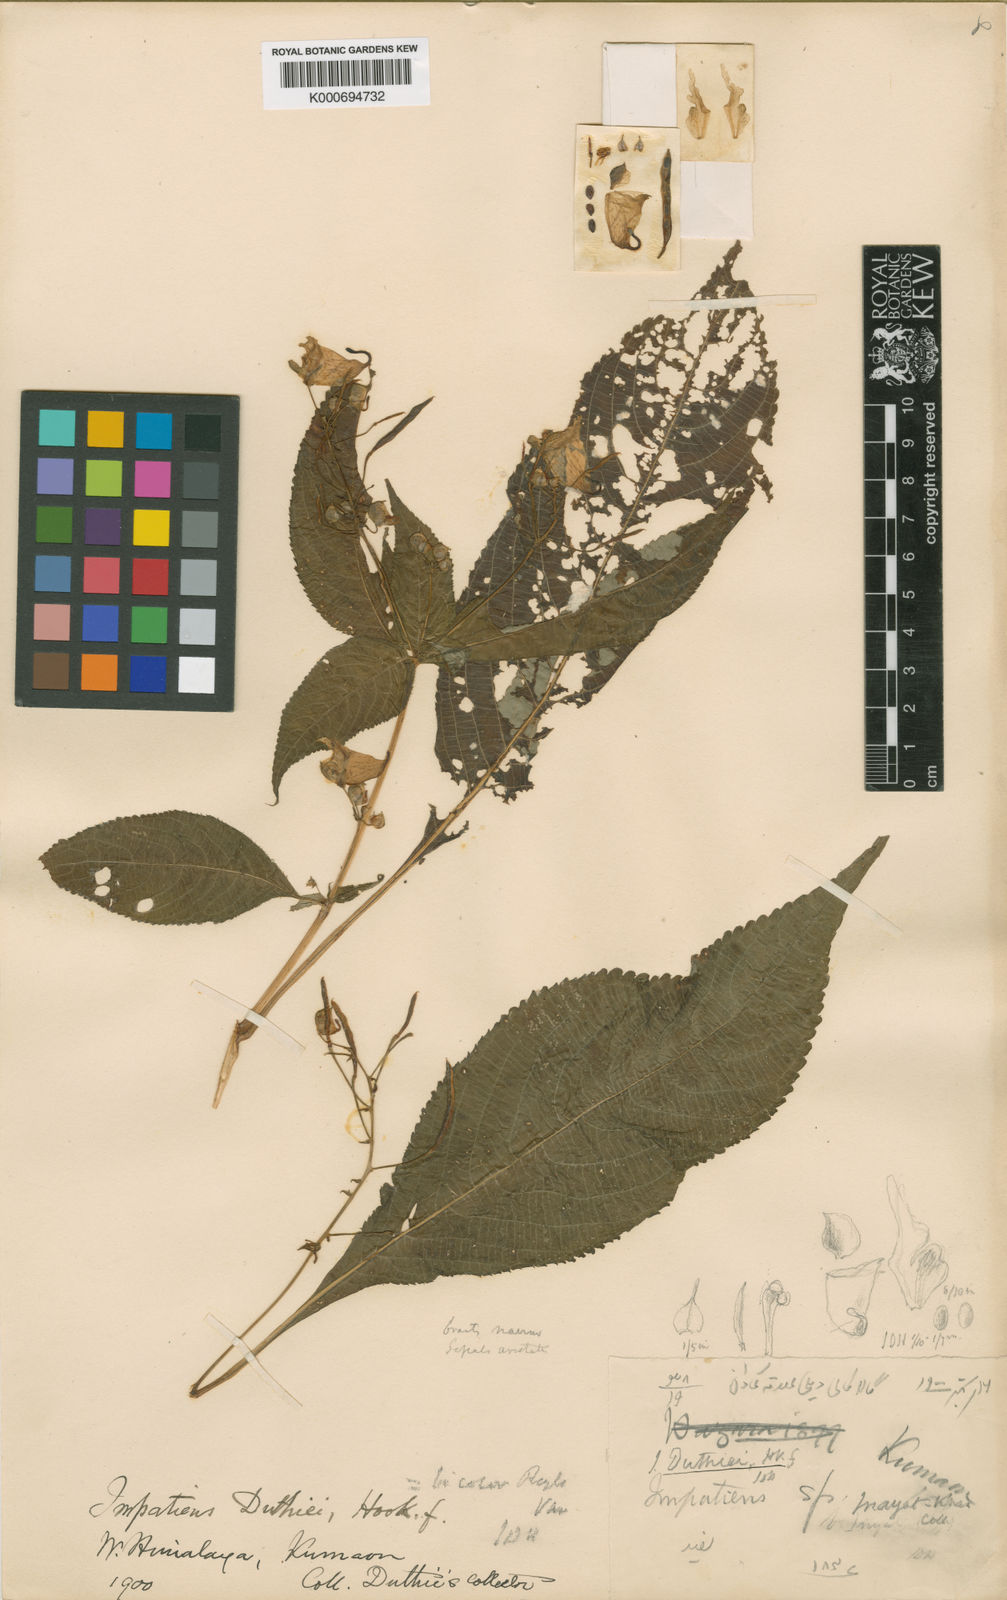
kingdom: Plantae
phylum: Tracheophyta
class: Magnoliopsida
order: Ericales
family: Balsaminaceae
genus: Impatiens
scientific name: Impatiens bicolor
